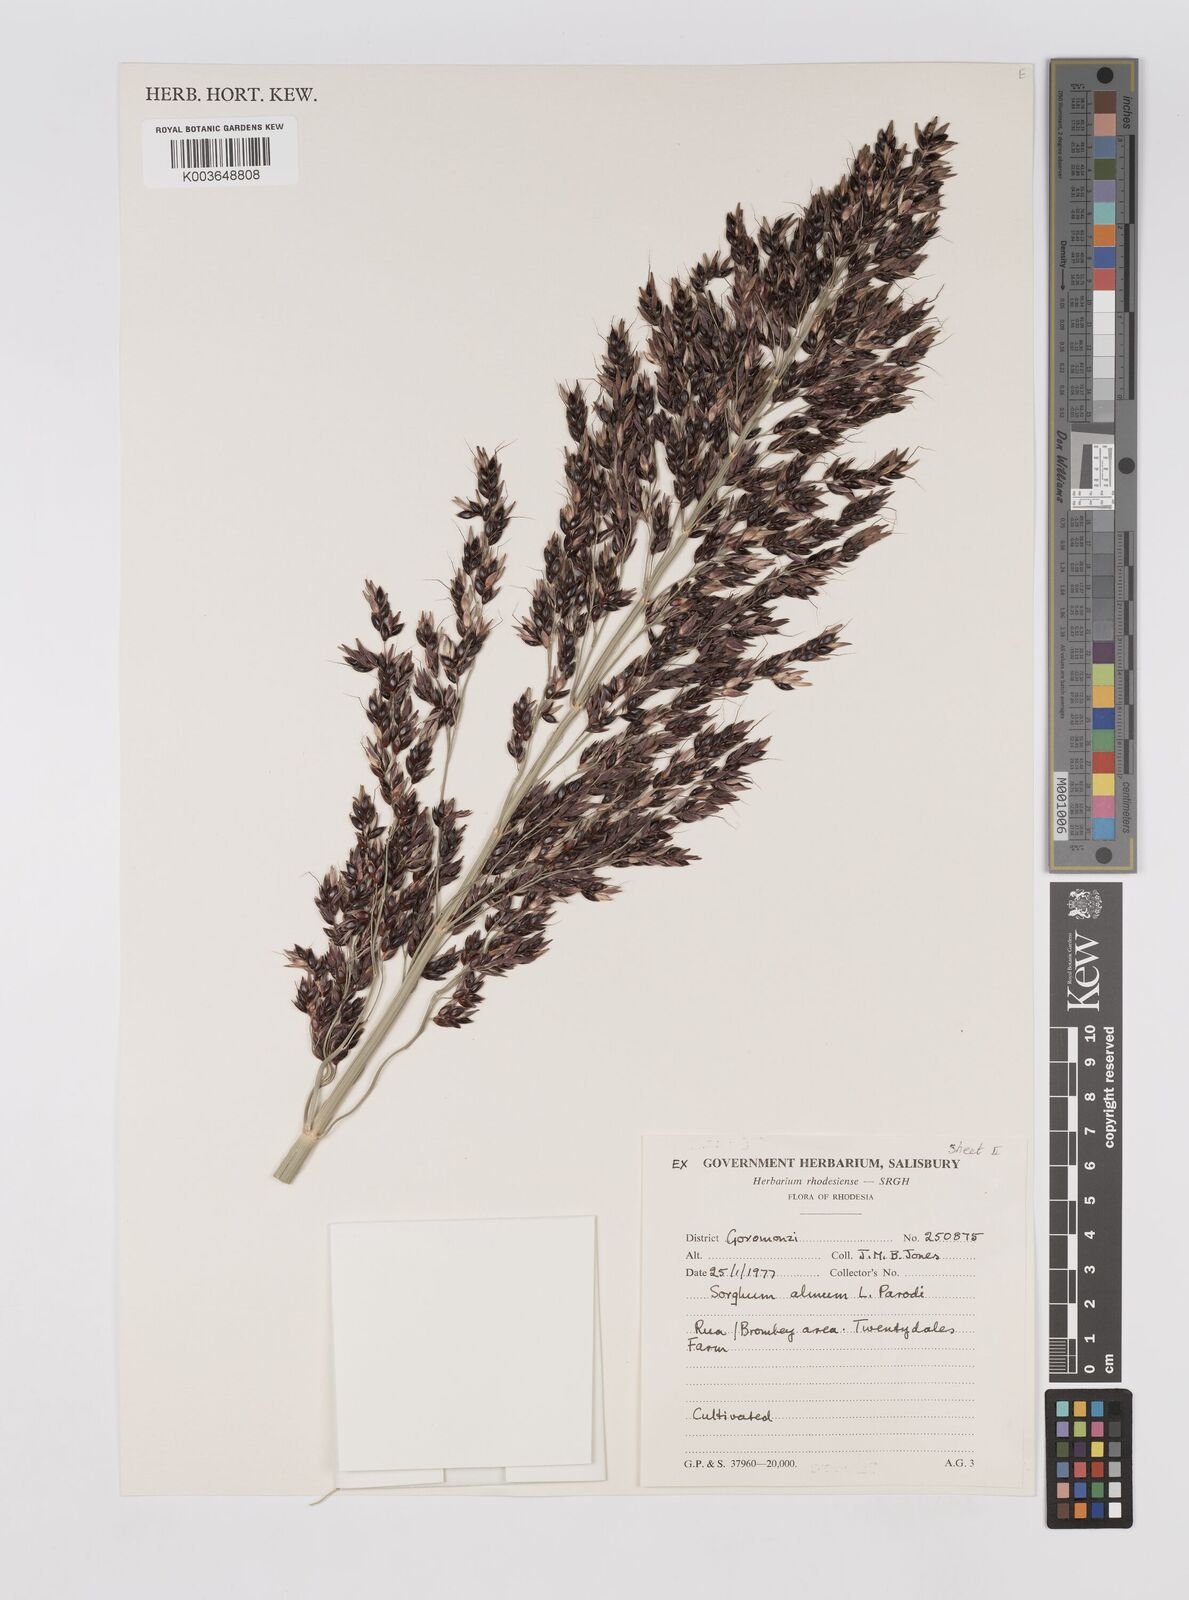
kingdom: Plantae
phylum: Tracheophyta
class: Liliopsida
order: Poales
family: Poaceae
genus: Cymbopogon
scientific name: Cymbopogon procerus
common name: Lemongrass
